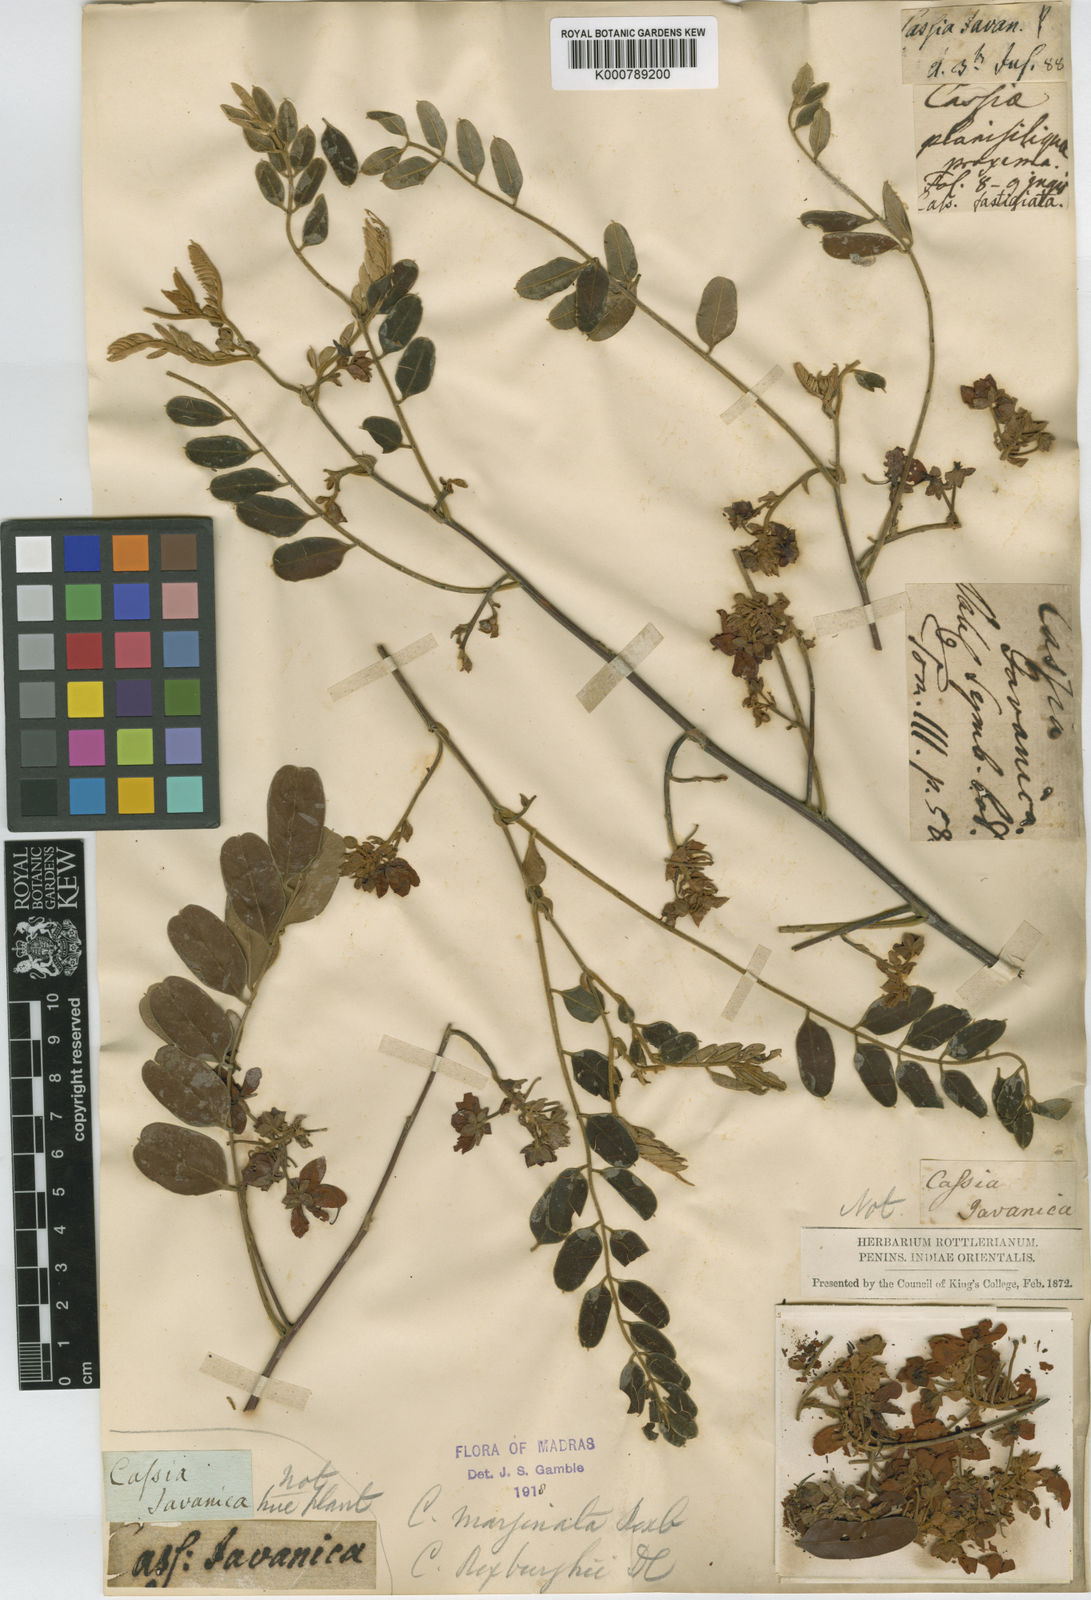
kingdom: Plantae
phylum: Tracheophyta
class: Magnoliopsida
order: Fabales
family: Fabaceae
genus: Cassia
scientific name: Cassia roxburghii
